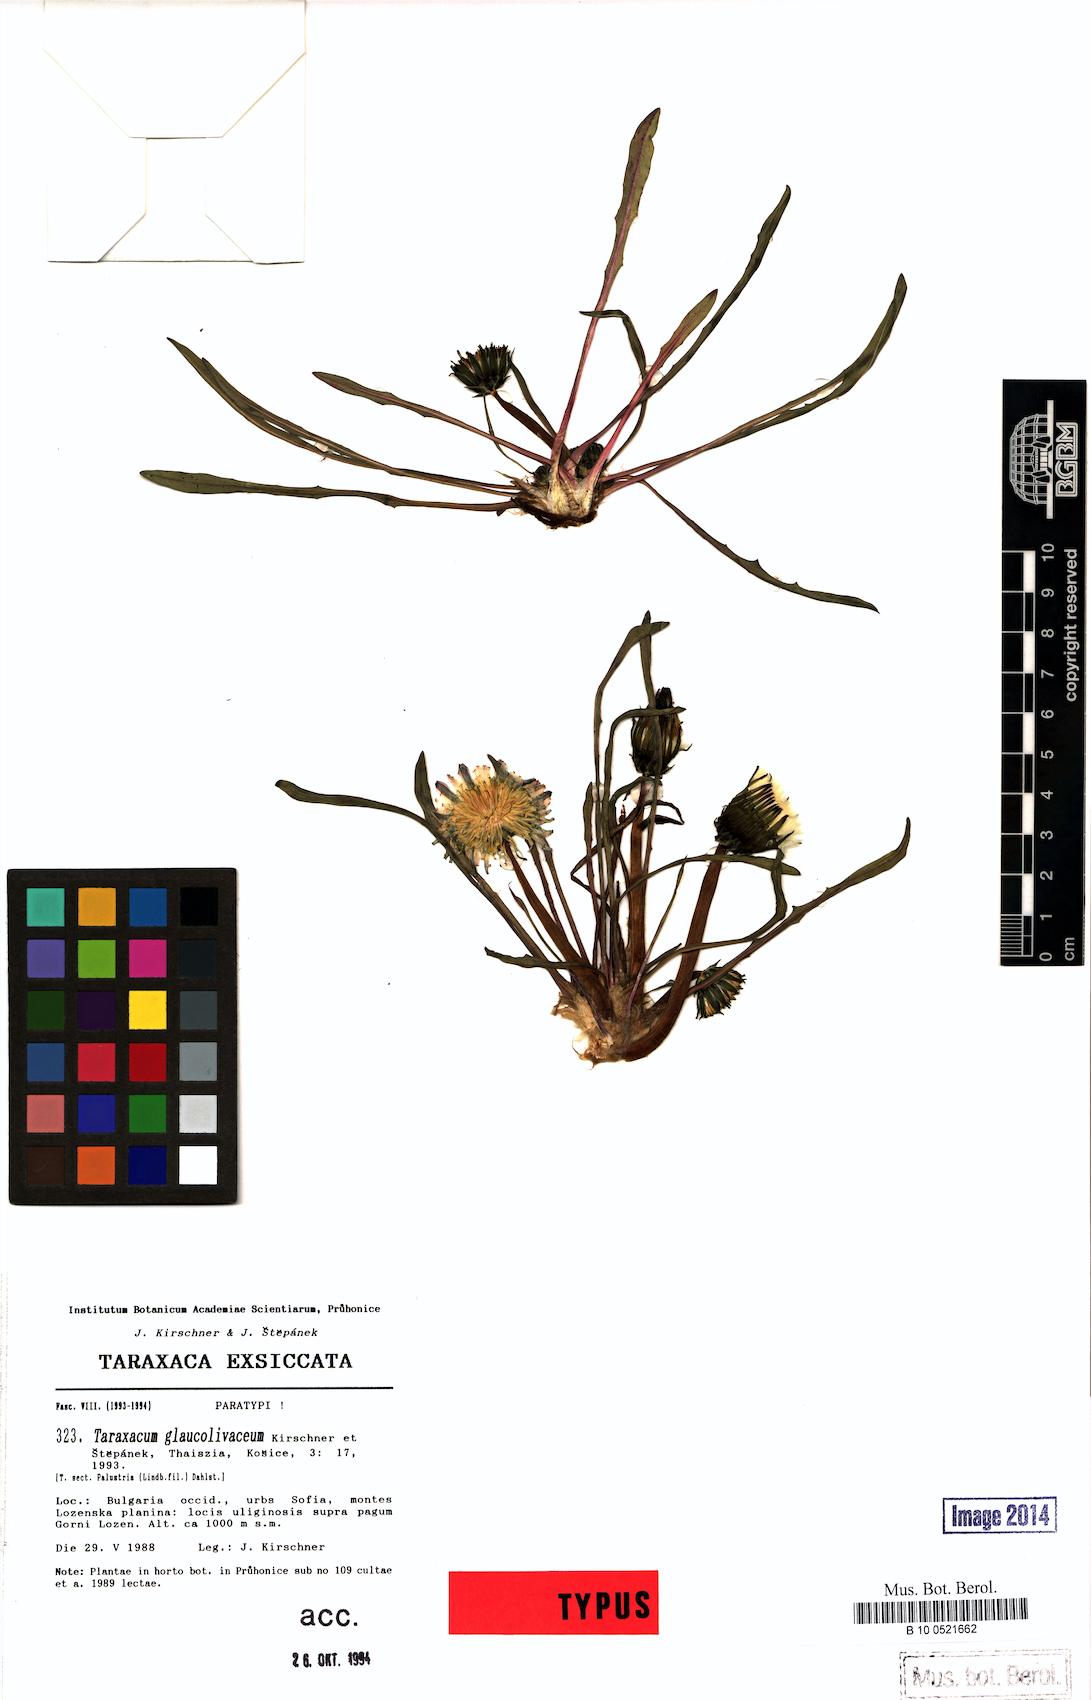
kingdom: Plantae
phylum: Tracheophyta
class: Magnoliopsida
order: Asterales
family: Asteraceae
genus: Taraxacum
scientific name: Taraxacum glaucolivaceum
